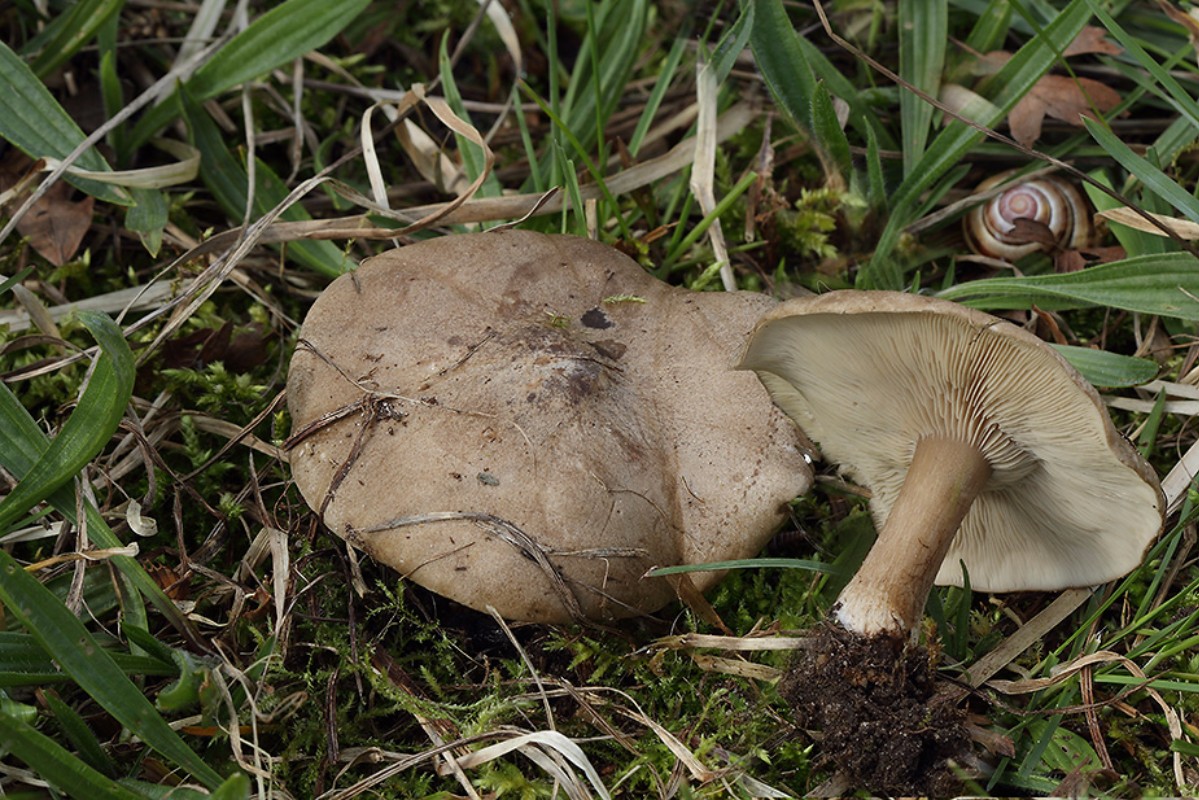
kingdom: Fungi
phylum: Basidiomycota
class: Agaricomycetes
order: Agaricales
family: Tricholomataceae
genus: Melanoleuca
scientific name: Melanoleuca humilis
